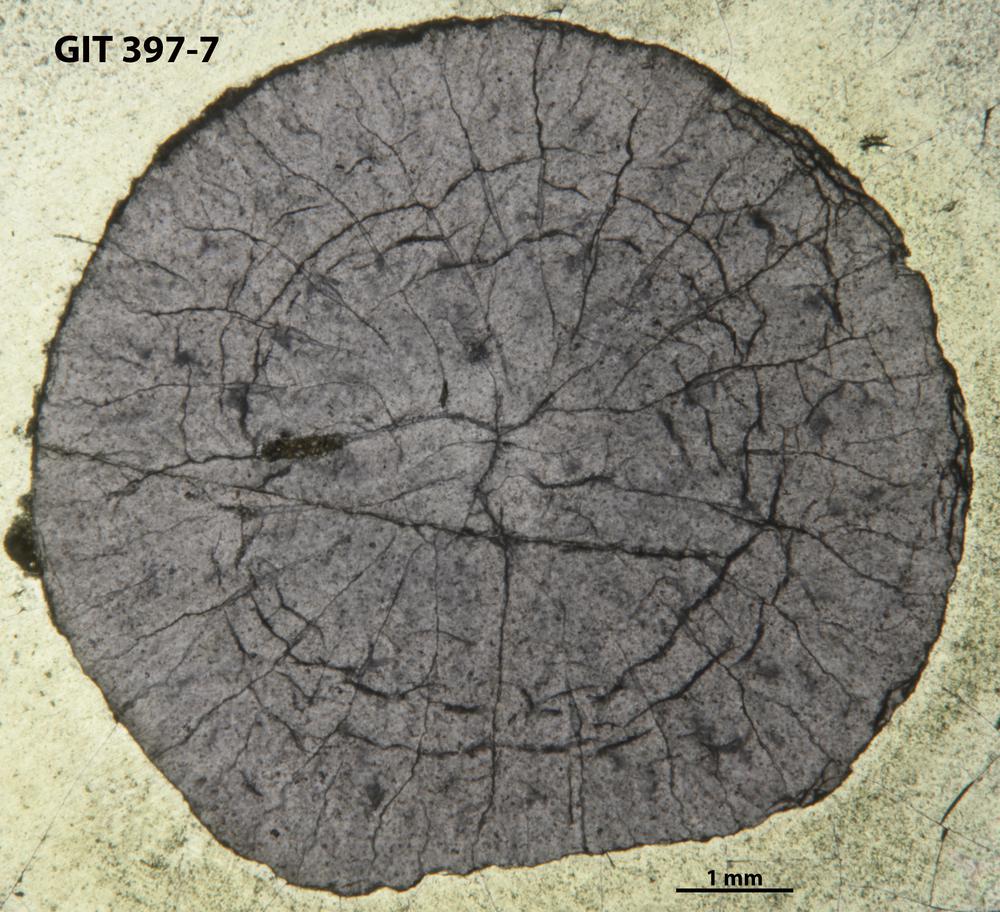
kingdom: Animalia
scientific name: Animalia
